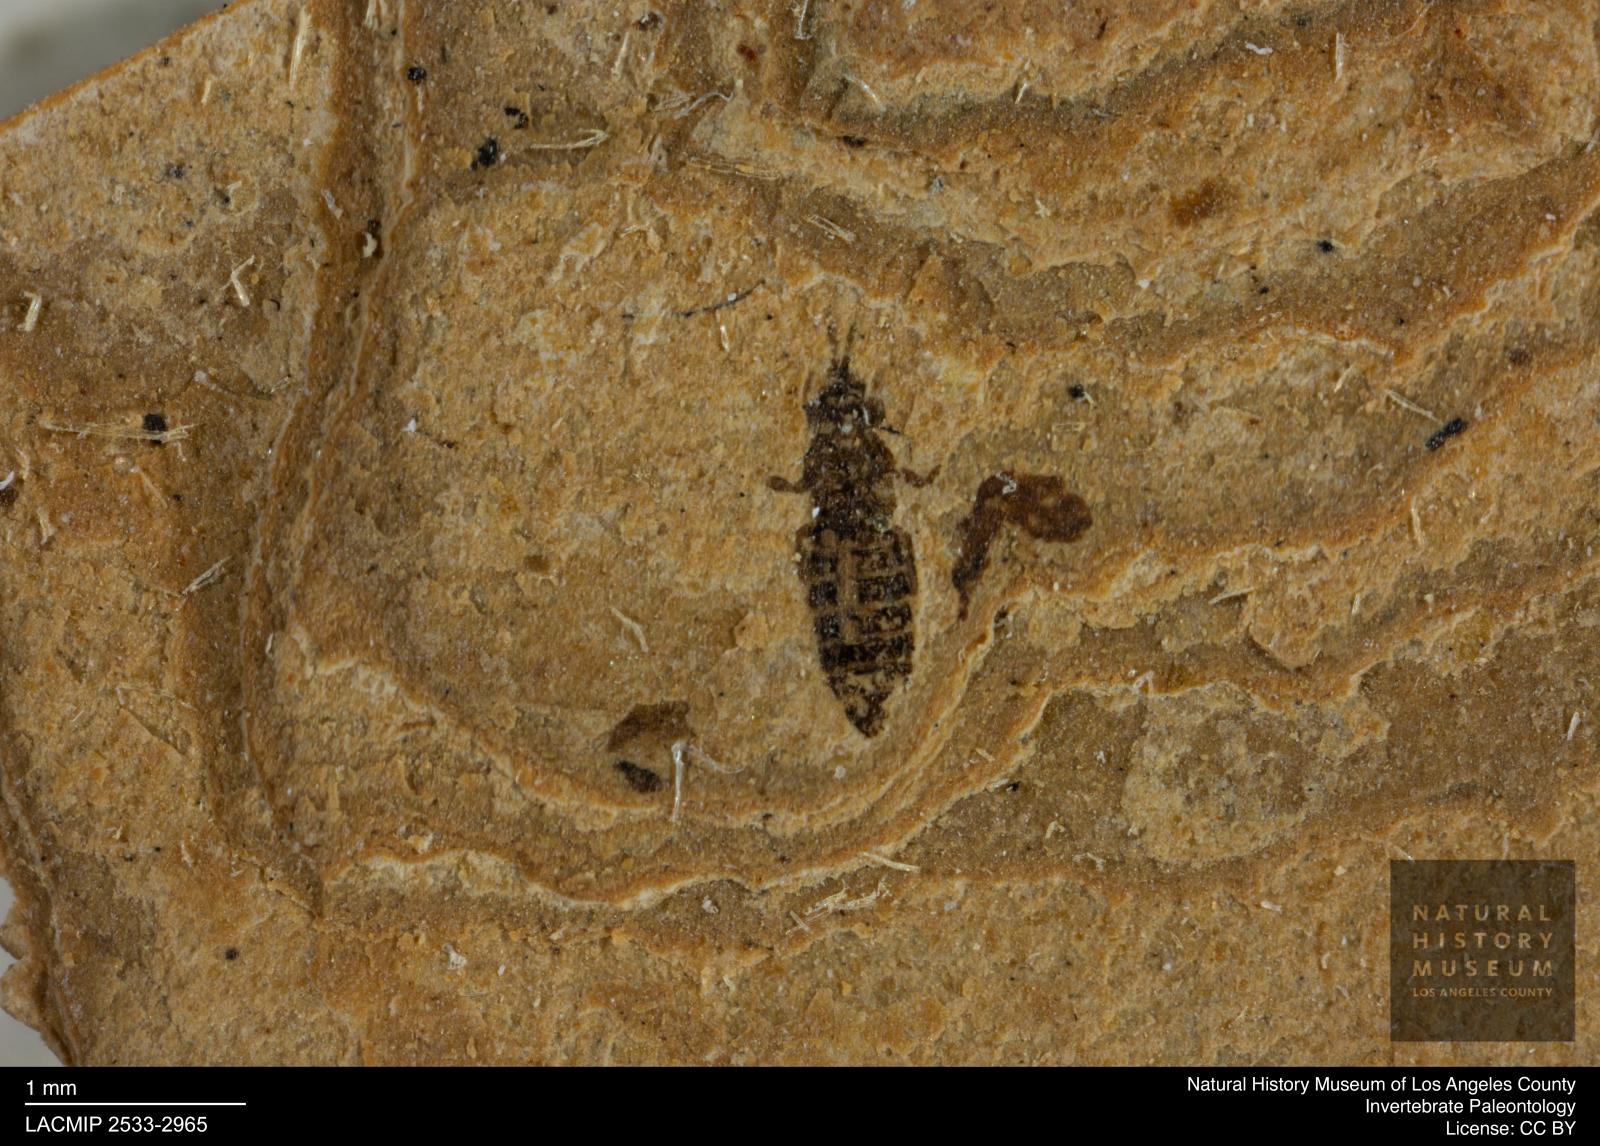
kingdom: Animalia
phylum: Arthropoda
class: Insecta
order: Thysanoptera
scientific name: Thysanoptera
